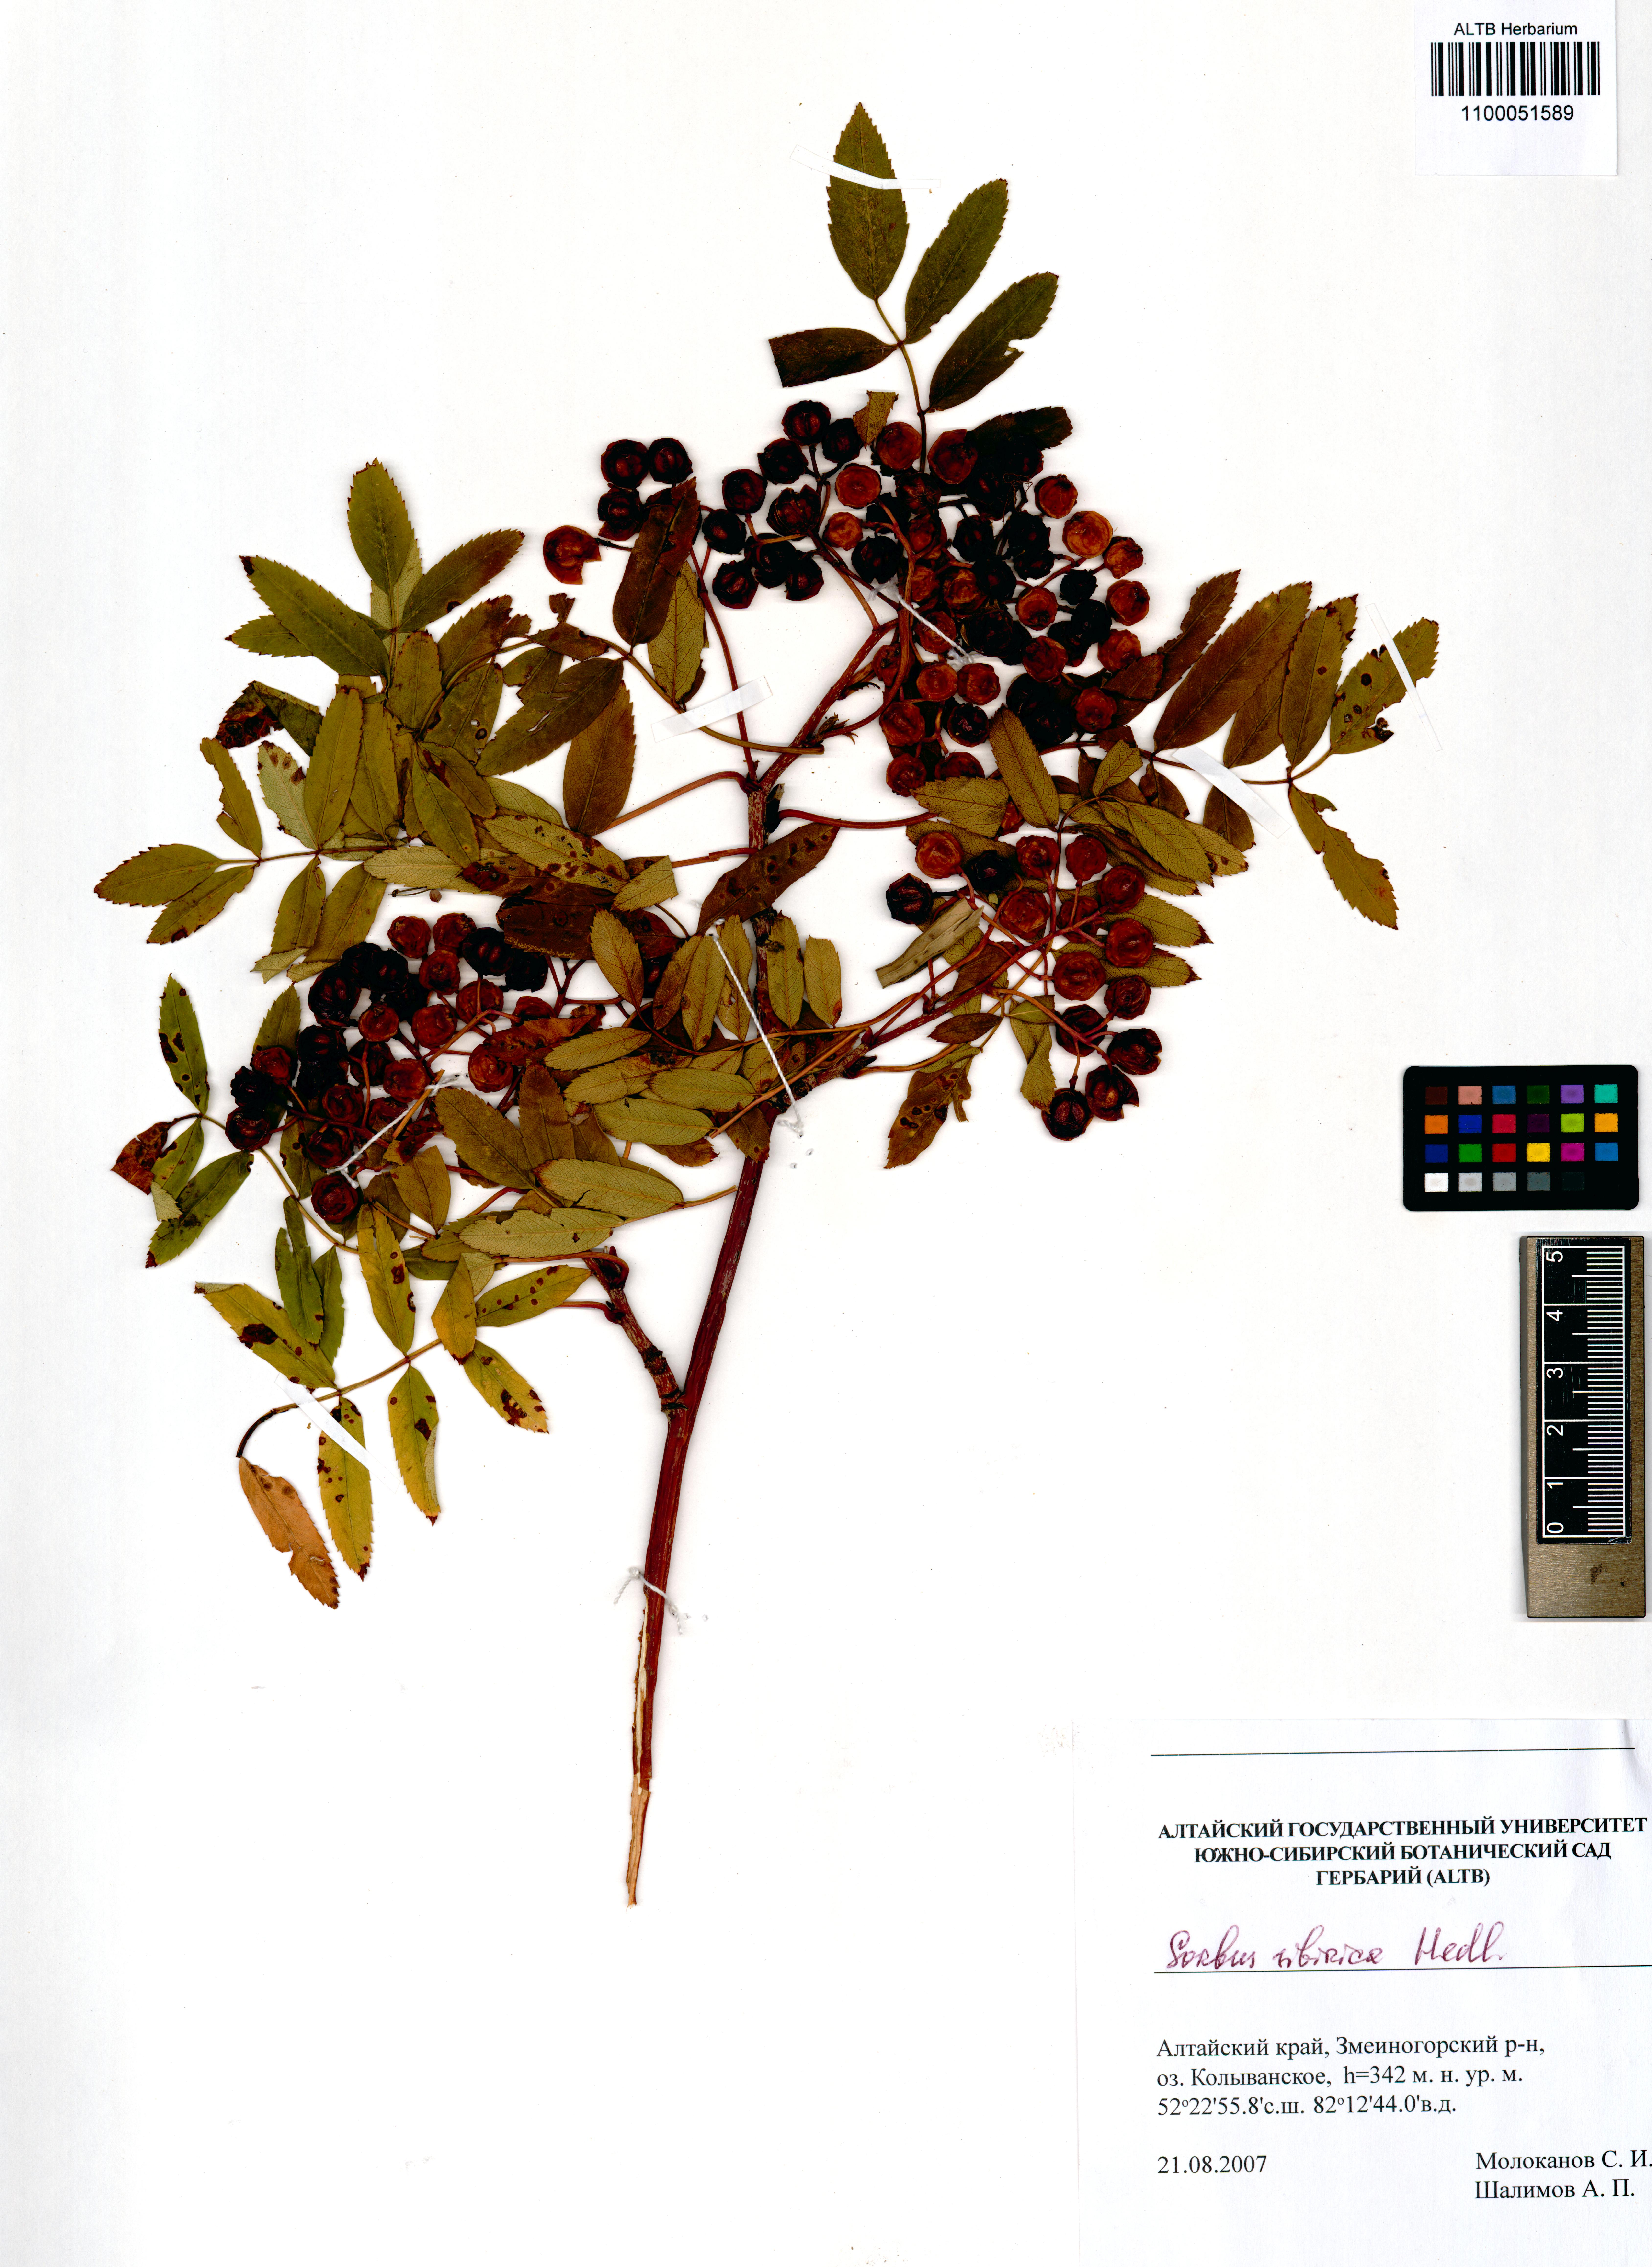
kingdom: Plantae
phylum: Tracheophyta
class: Magnoliopsida
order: Rosales
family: Rosaceae
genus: Sorbus
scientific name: Sorbus aucuparia
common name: Rowan
